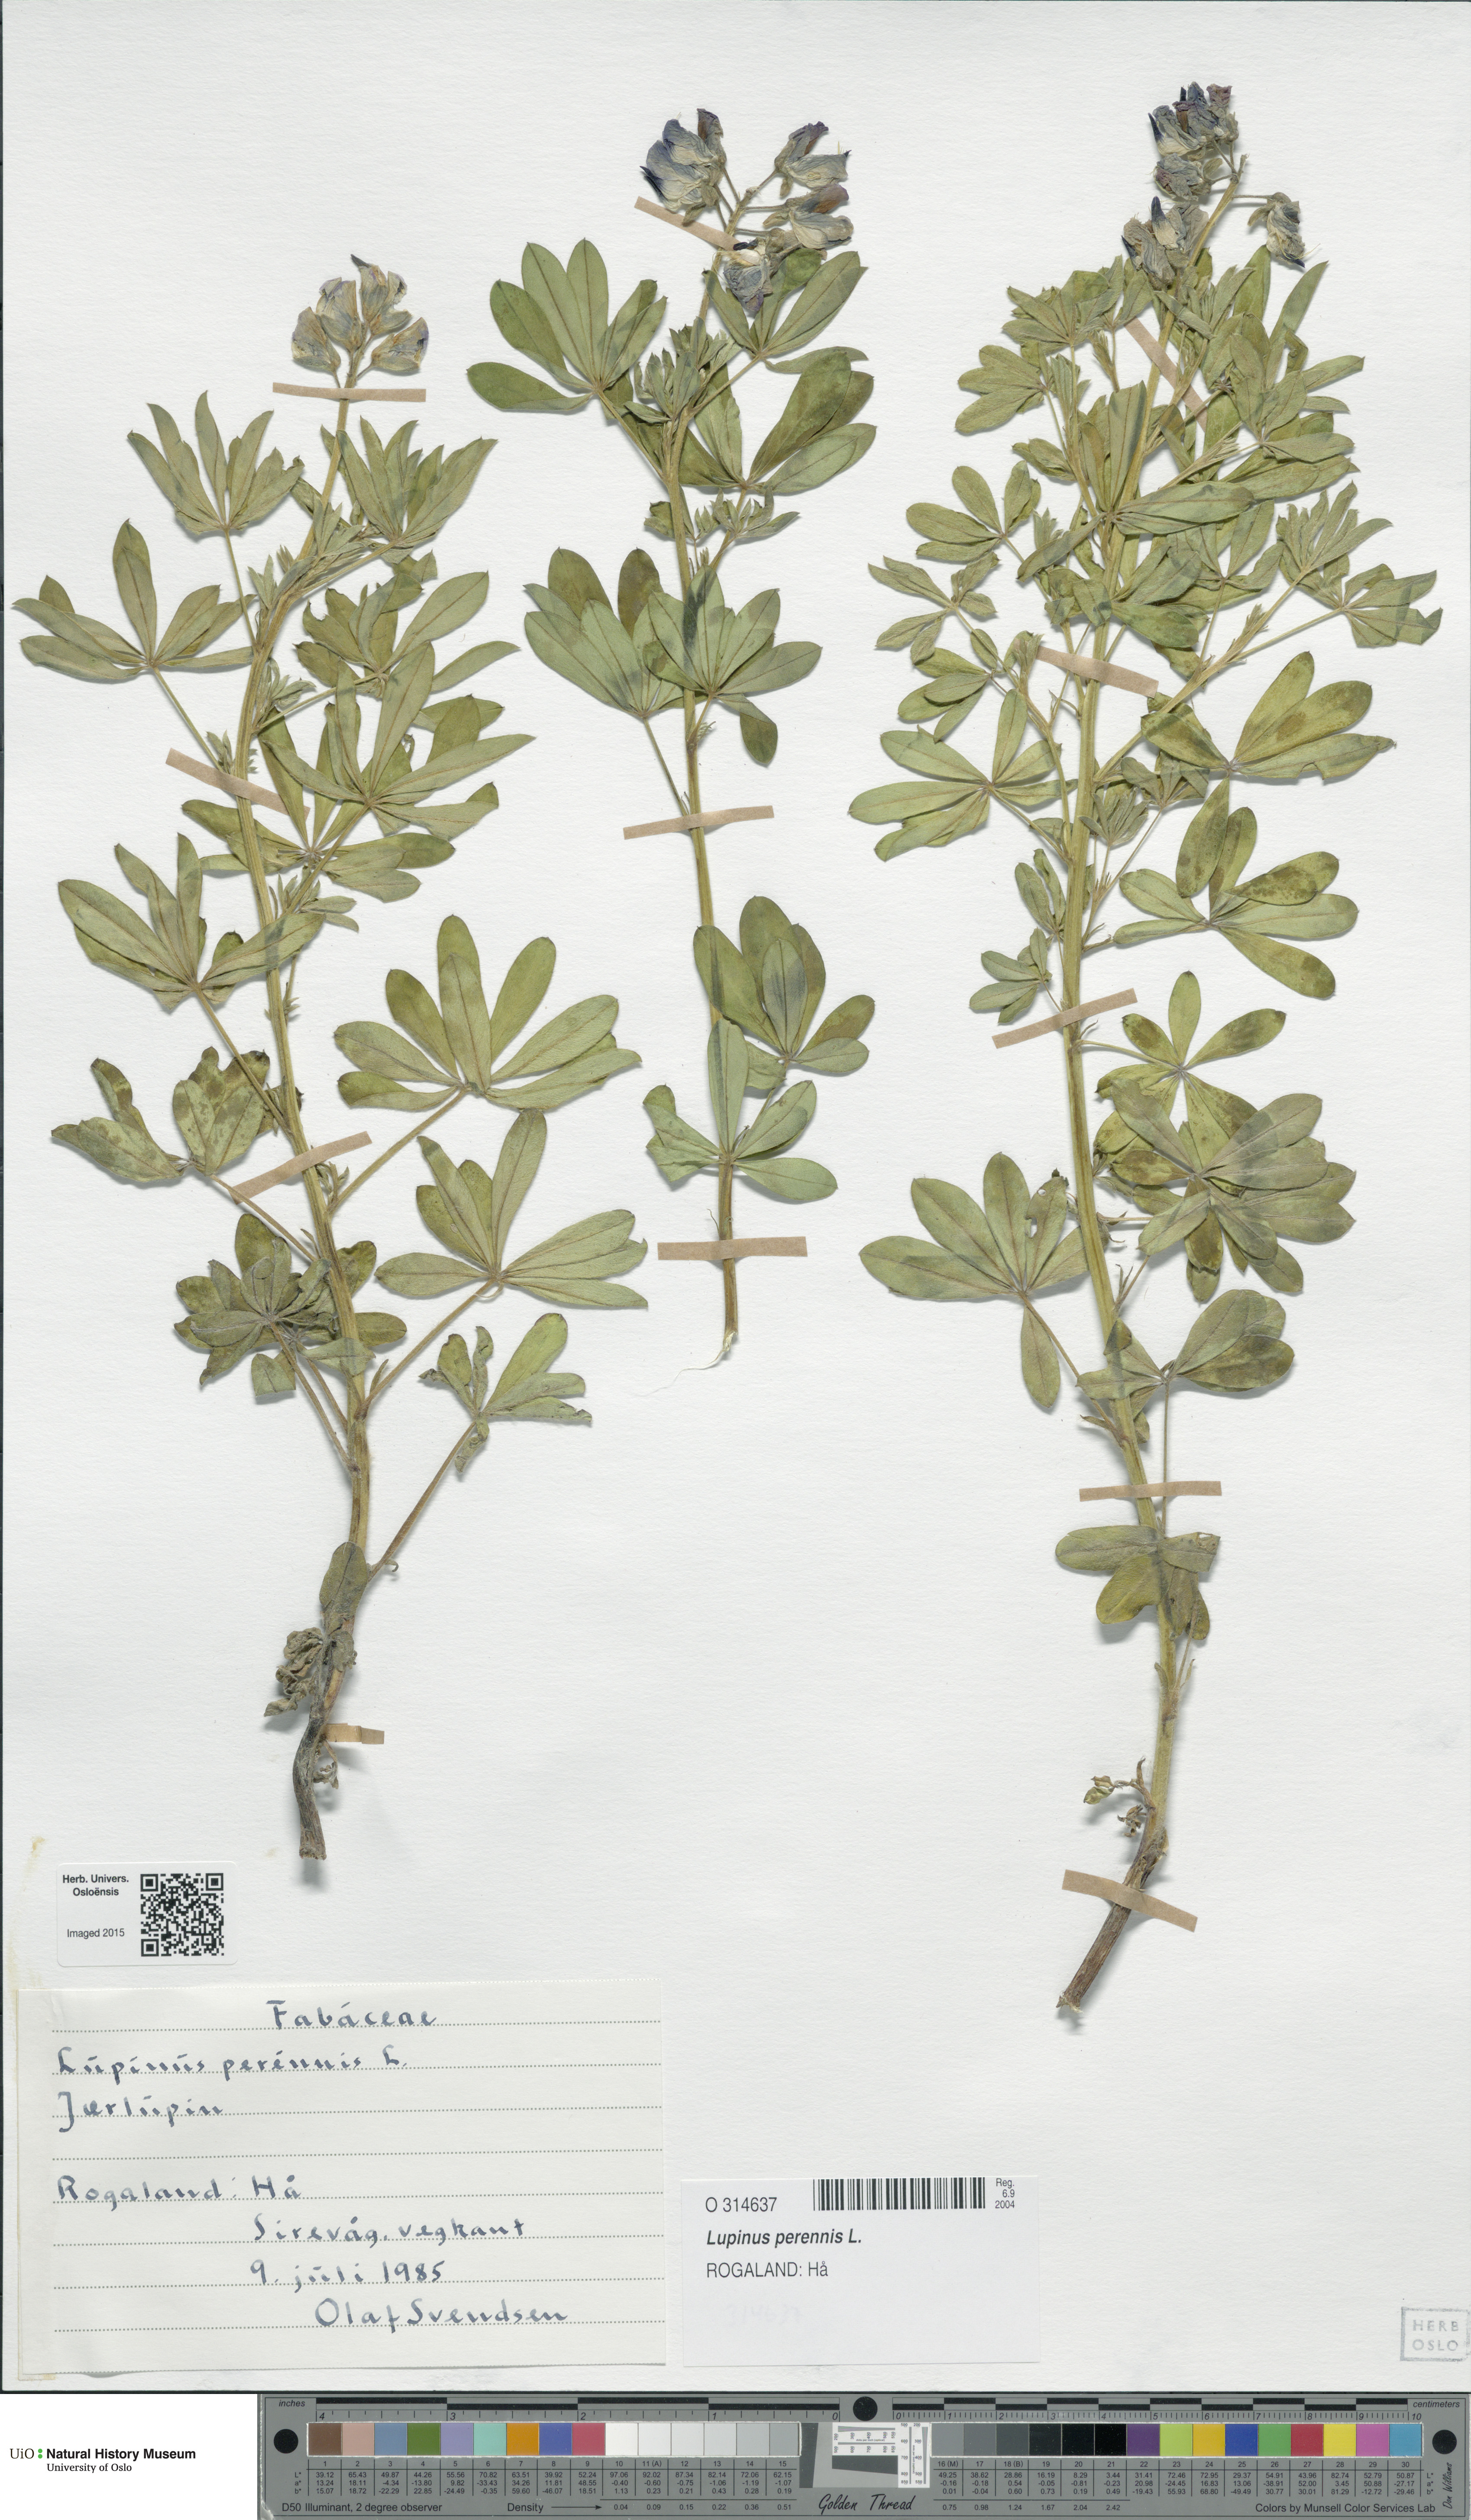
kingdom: Plantae
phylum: Tracheophyta
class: Magnoliopsida
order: Fabales
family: Fabaceae
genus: Lupinus
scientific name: Lupinus perennis
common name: Sundial lupine
